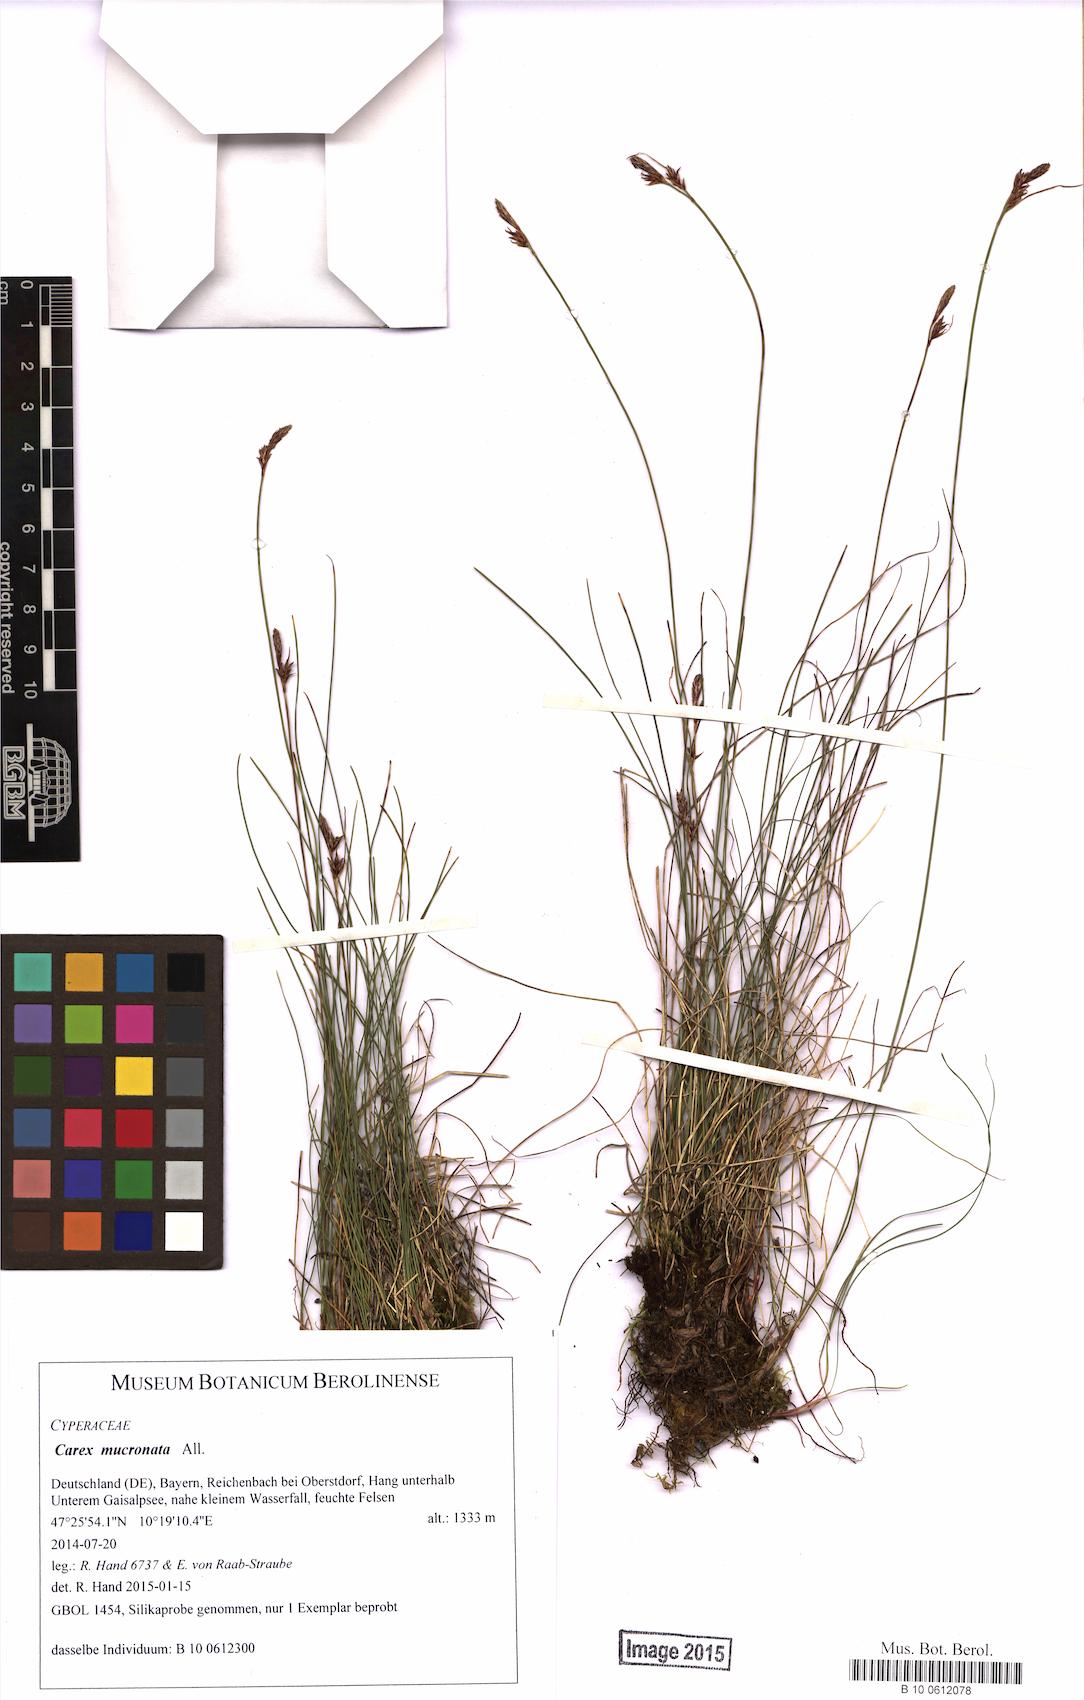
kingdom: Plantae
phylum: Tracheophyta
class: Liliopsida
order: Poales
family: Cyperaceae
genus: Carex
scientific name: Carex mucronata
